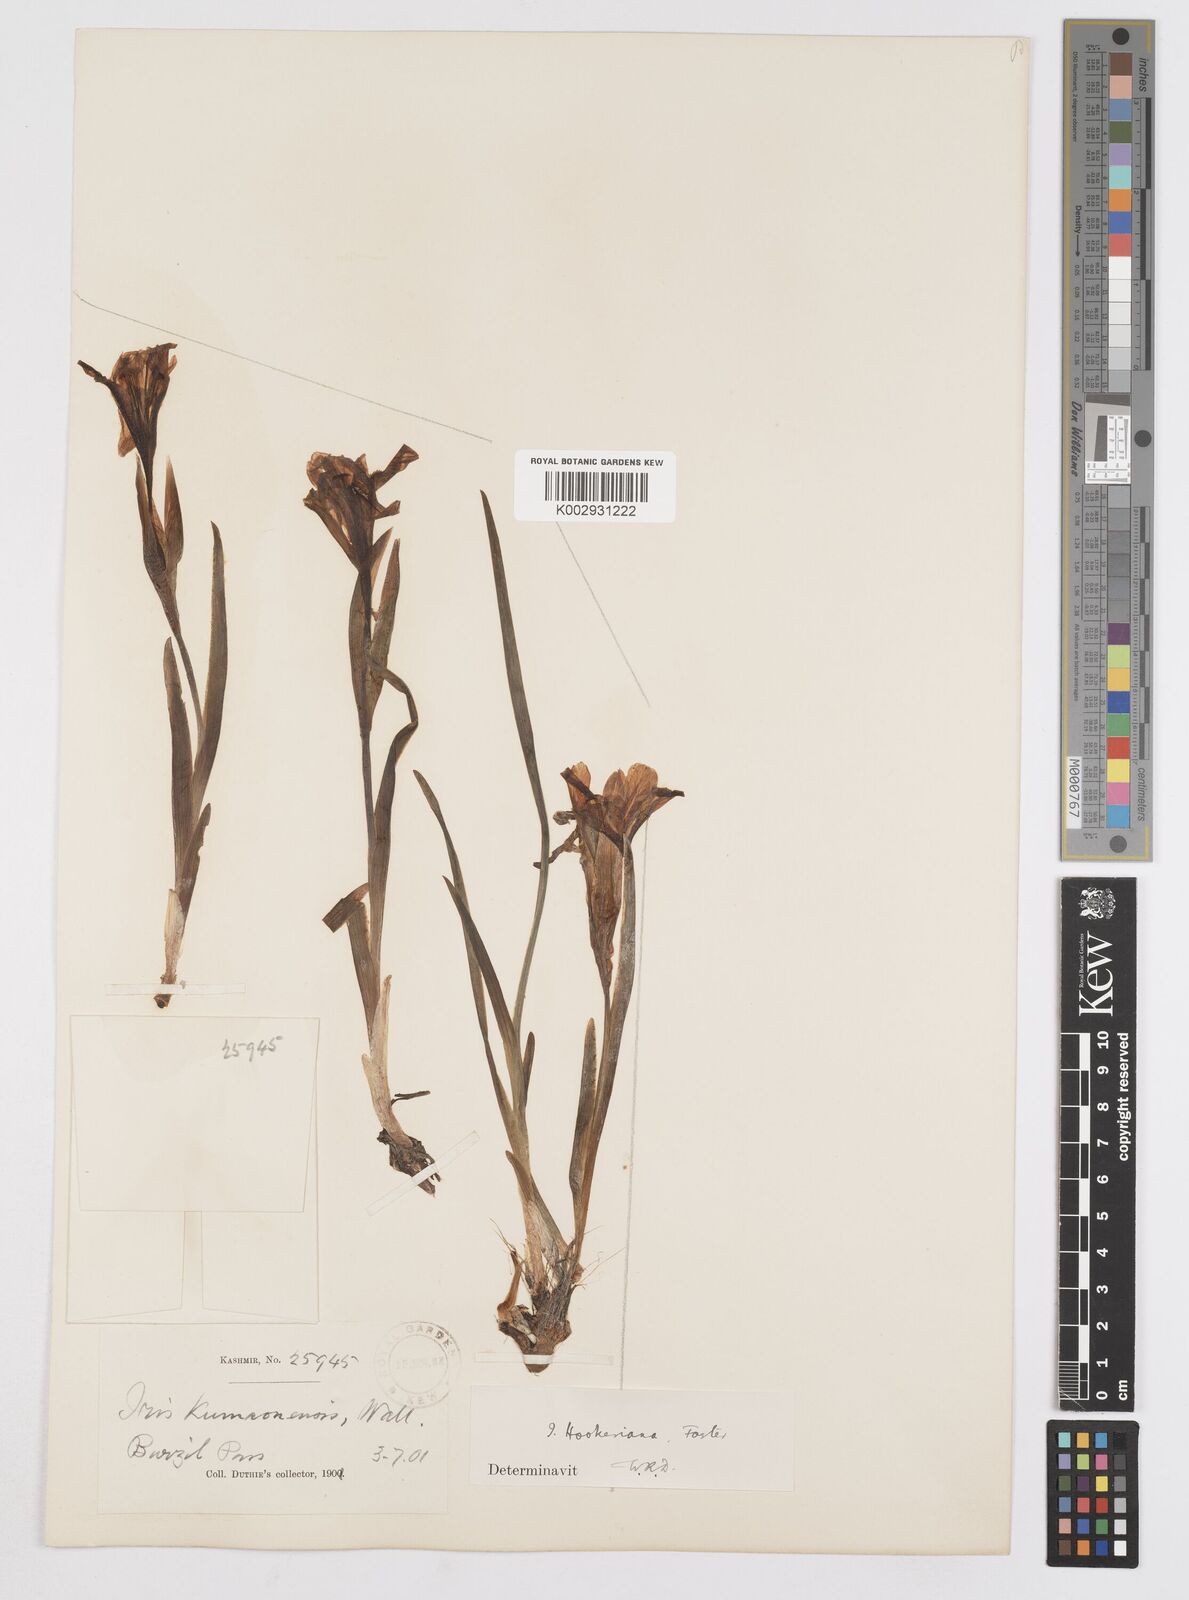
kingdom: Plantae
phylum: Tracheophyta
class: Liliopsida
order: Asparagales
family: Iridaceae
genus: Iris
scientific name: Iris hookeriana
